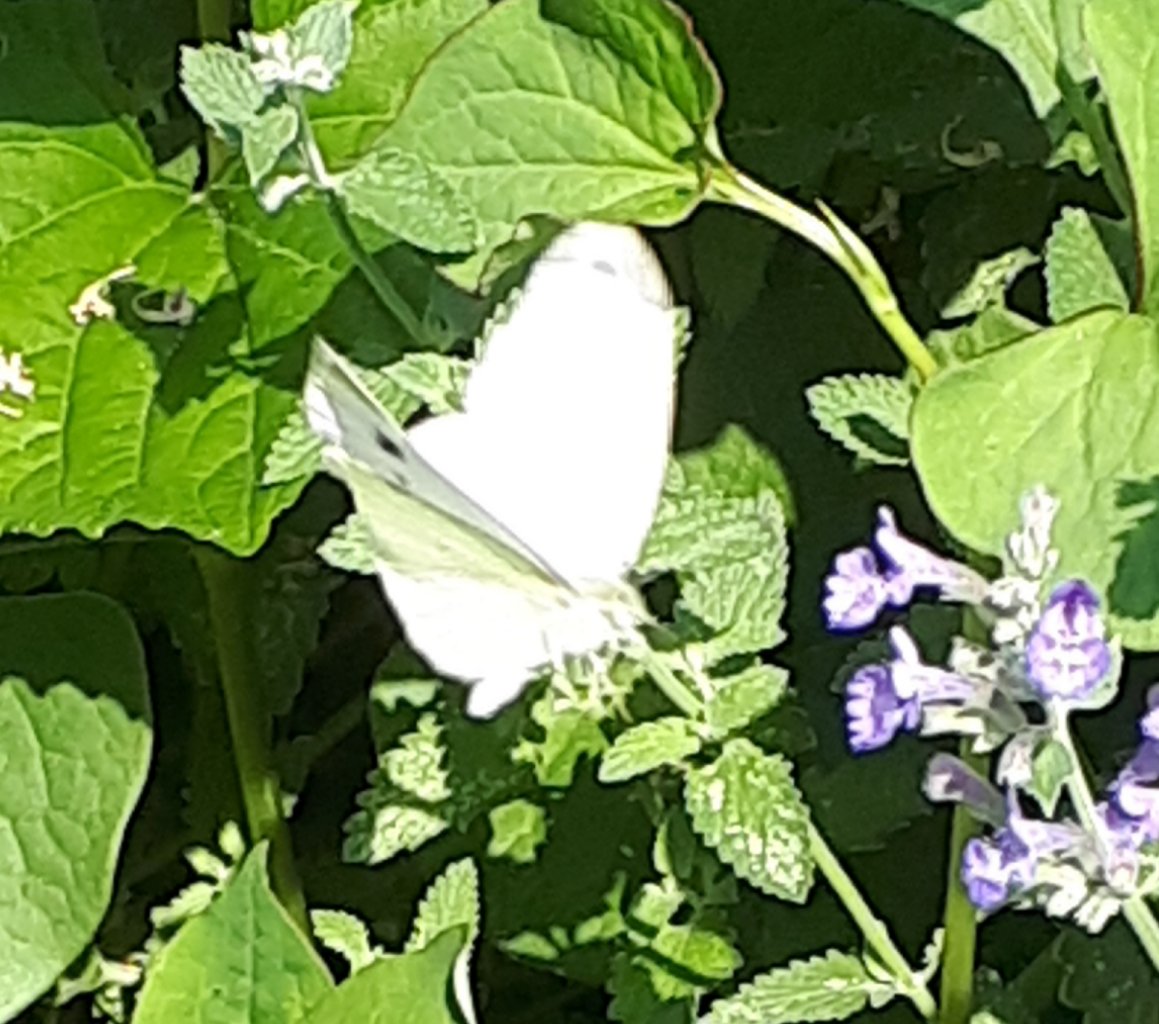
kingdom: Animalia
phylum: Arthropoda
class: Insecta
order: Lepidoptera
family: Pieridae
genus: Pieris
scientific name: Pieris rapae
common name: Cabbage White
